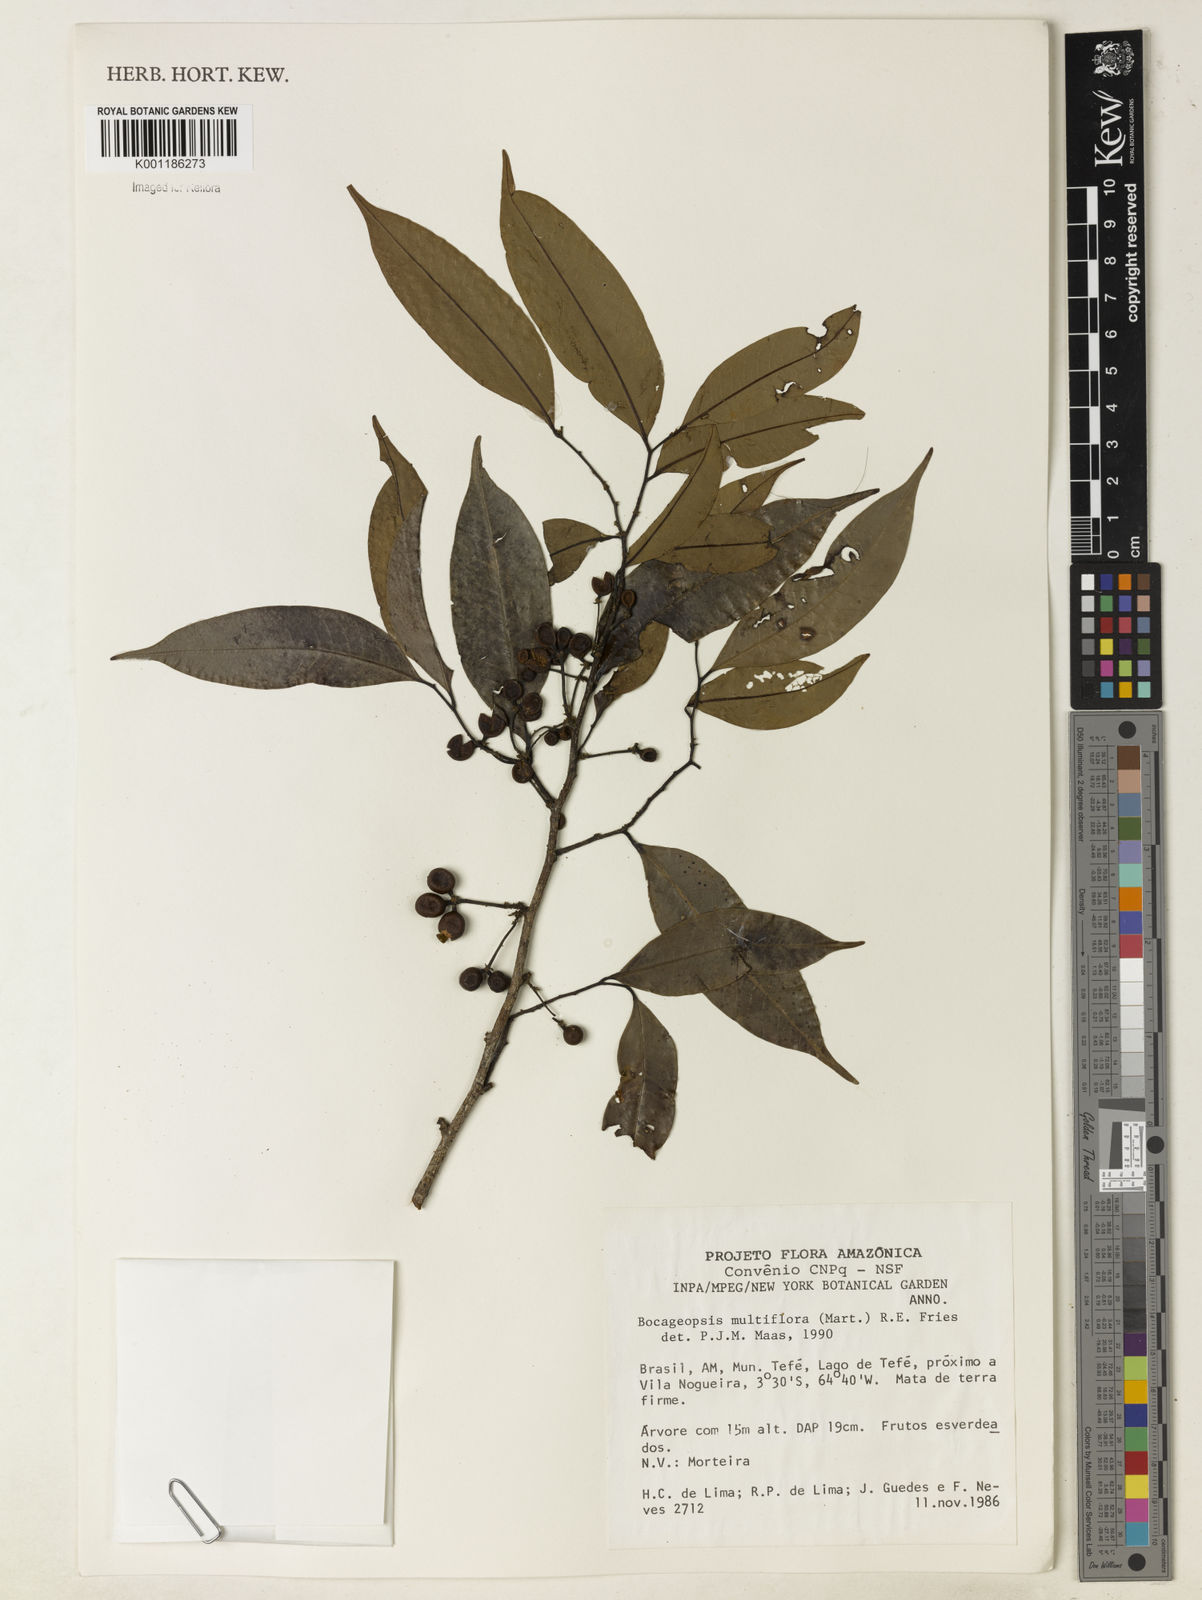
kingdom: Plantae
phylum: Tracheophyta
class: Magnoliopsida
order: Magnoliales
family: Annonaceae
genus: Bocageopsis
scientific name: Bocageopsis multiflora
